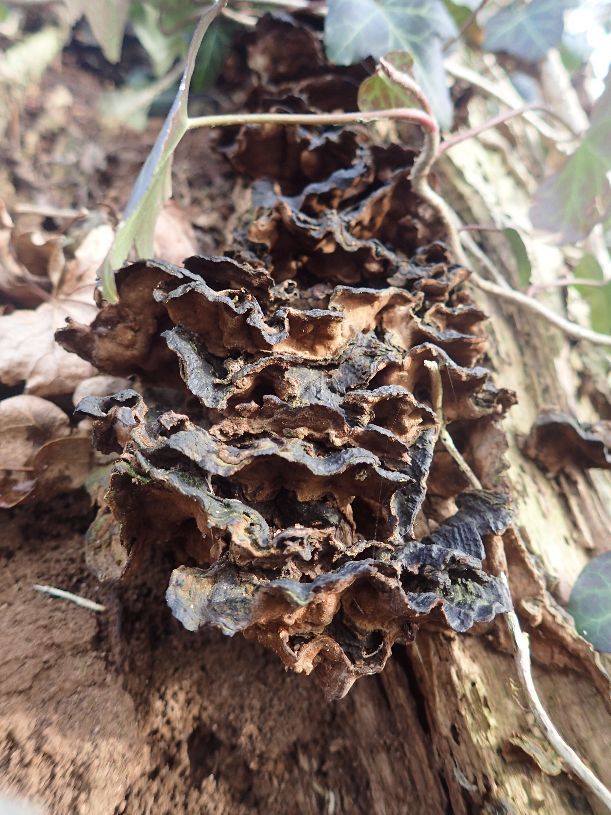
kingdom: Fungi
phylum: Basidiomycota
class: Agaricomycetes
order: Hymenochaetales
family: Hymenochaetaceae
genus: Hymenochaete
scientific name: Hymenochaete rubiginosa
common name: stiv ruslædersvamp
